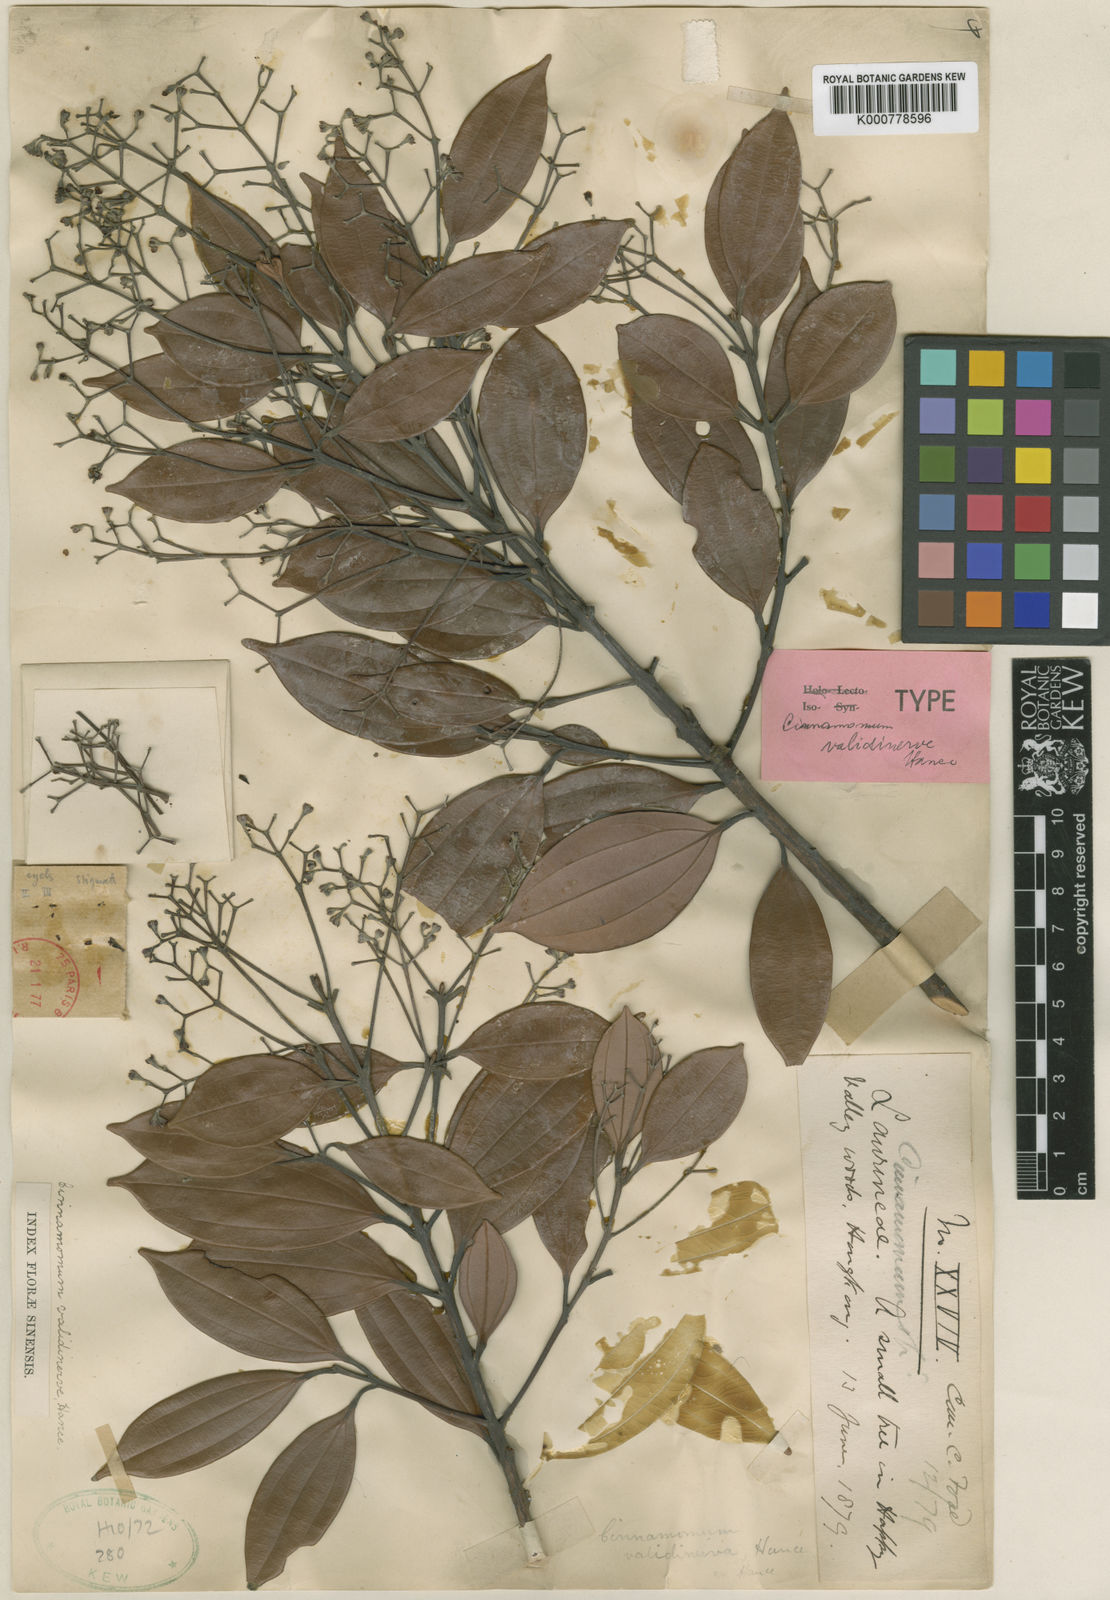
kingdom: Plantae
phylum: Tracheophyta
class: Magnoliopsida
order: Laurales
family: Lauraceae
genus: Cinnamomum
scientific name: Cinnamomum validinerve
